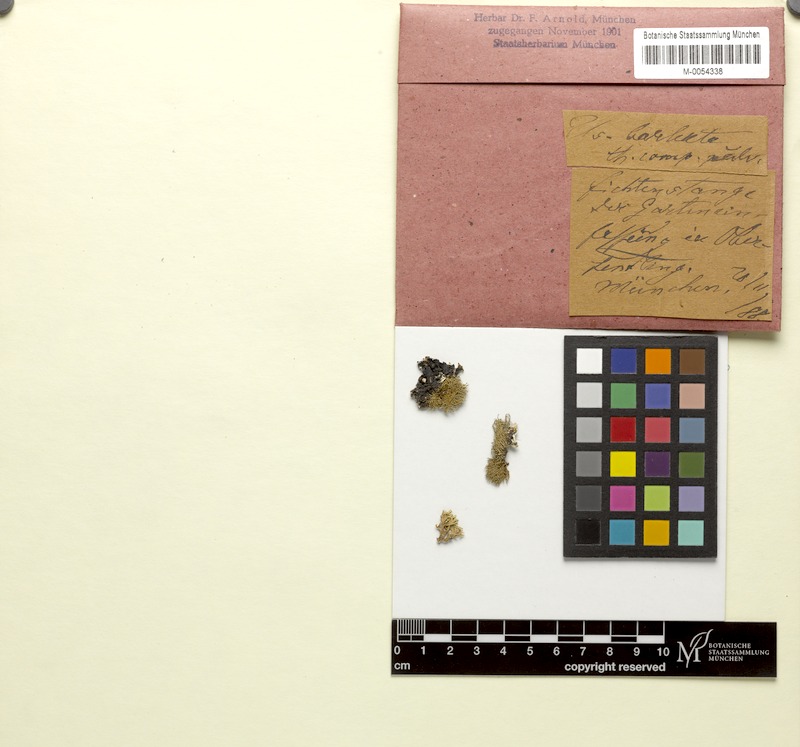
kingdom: Fungi
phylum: Ascomycota
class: Lecanoromycetes
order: Lecanorales
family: Parmeliaceae
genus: Usnea
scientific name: Usnea glauca
